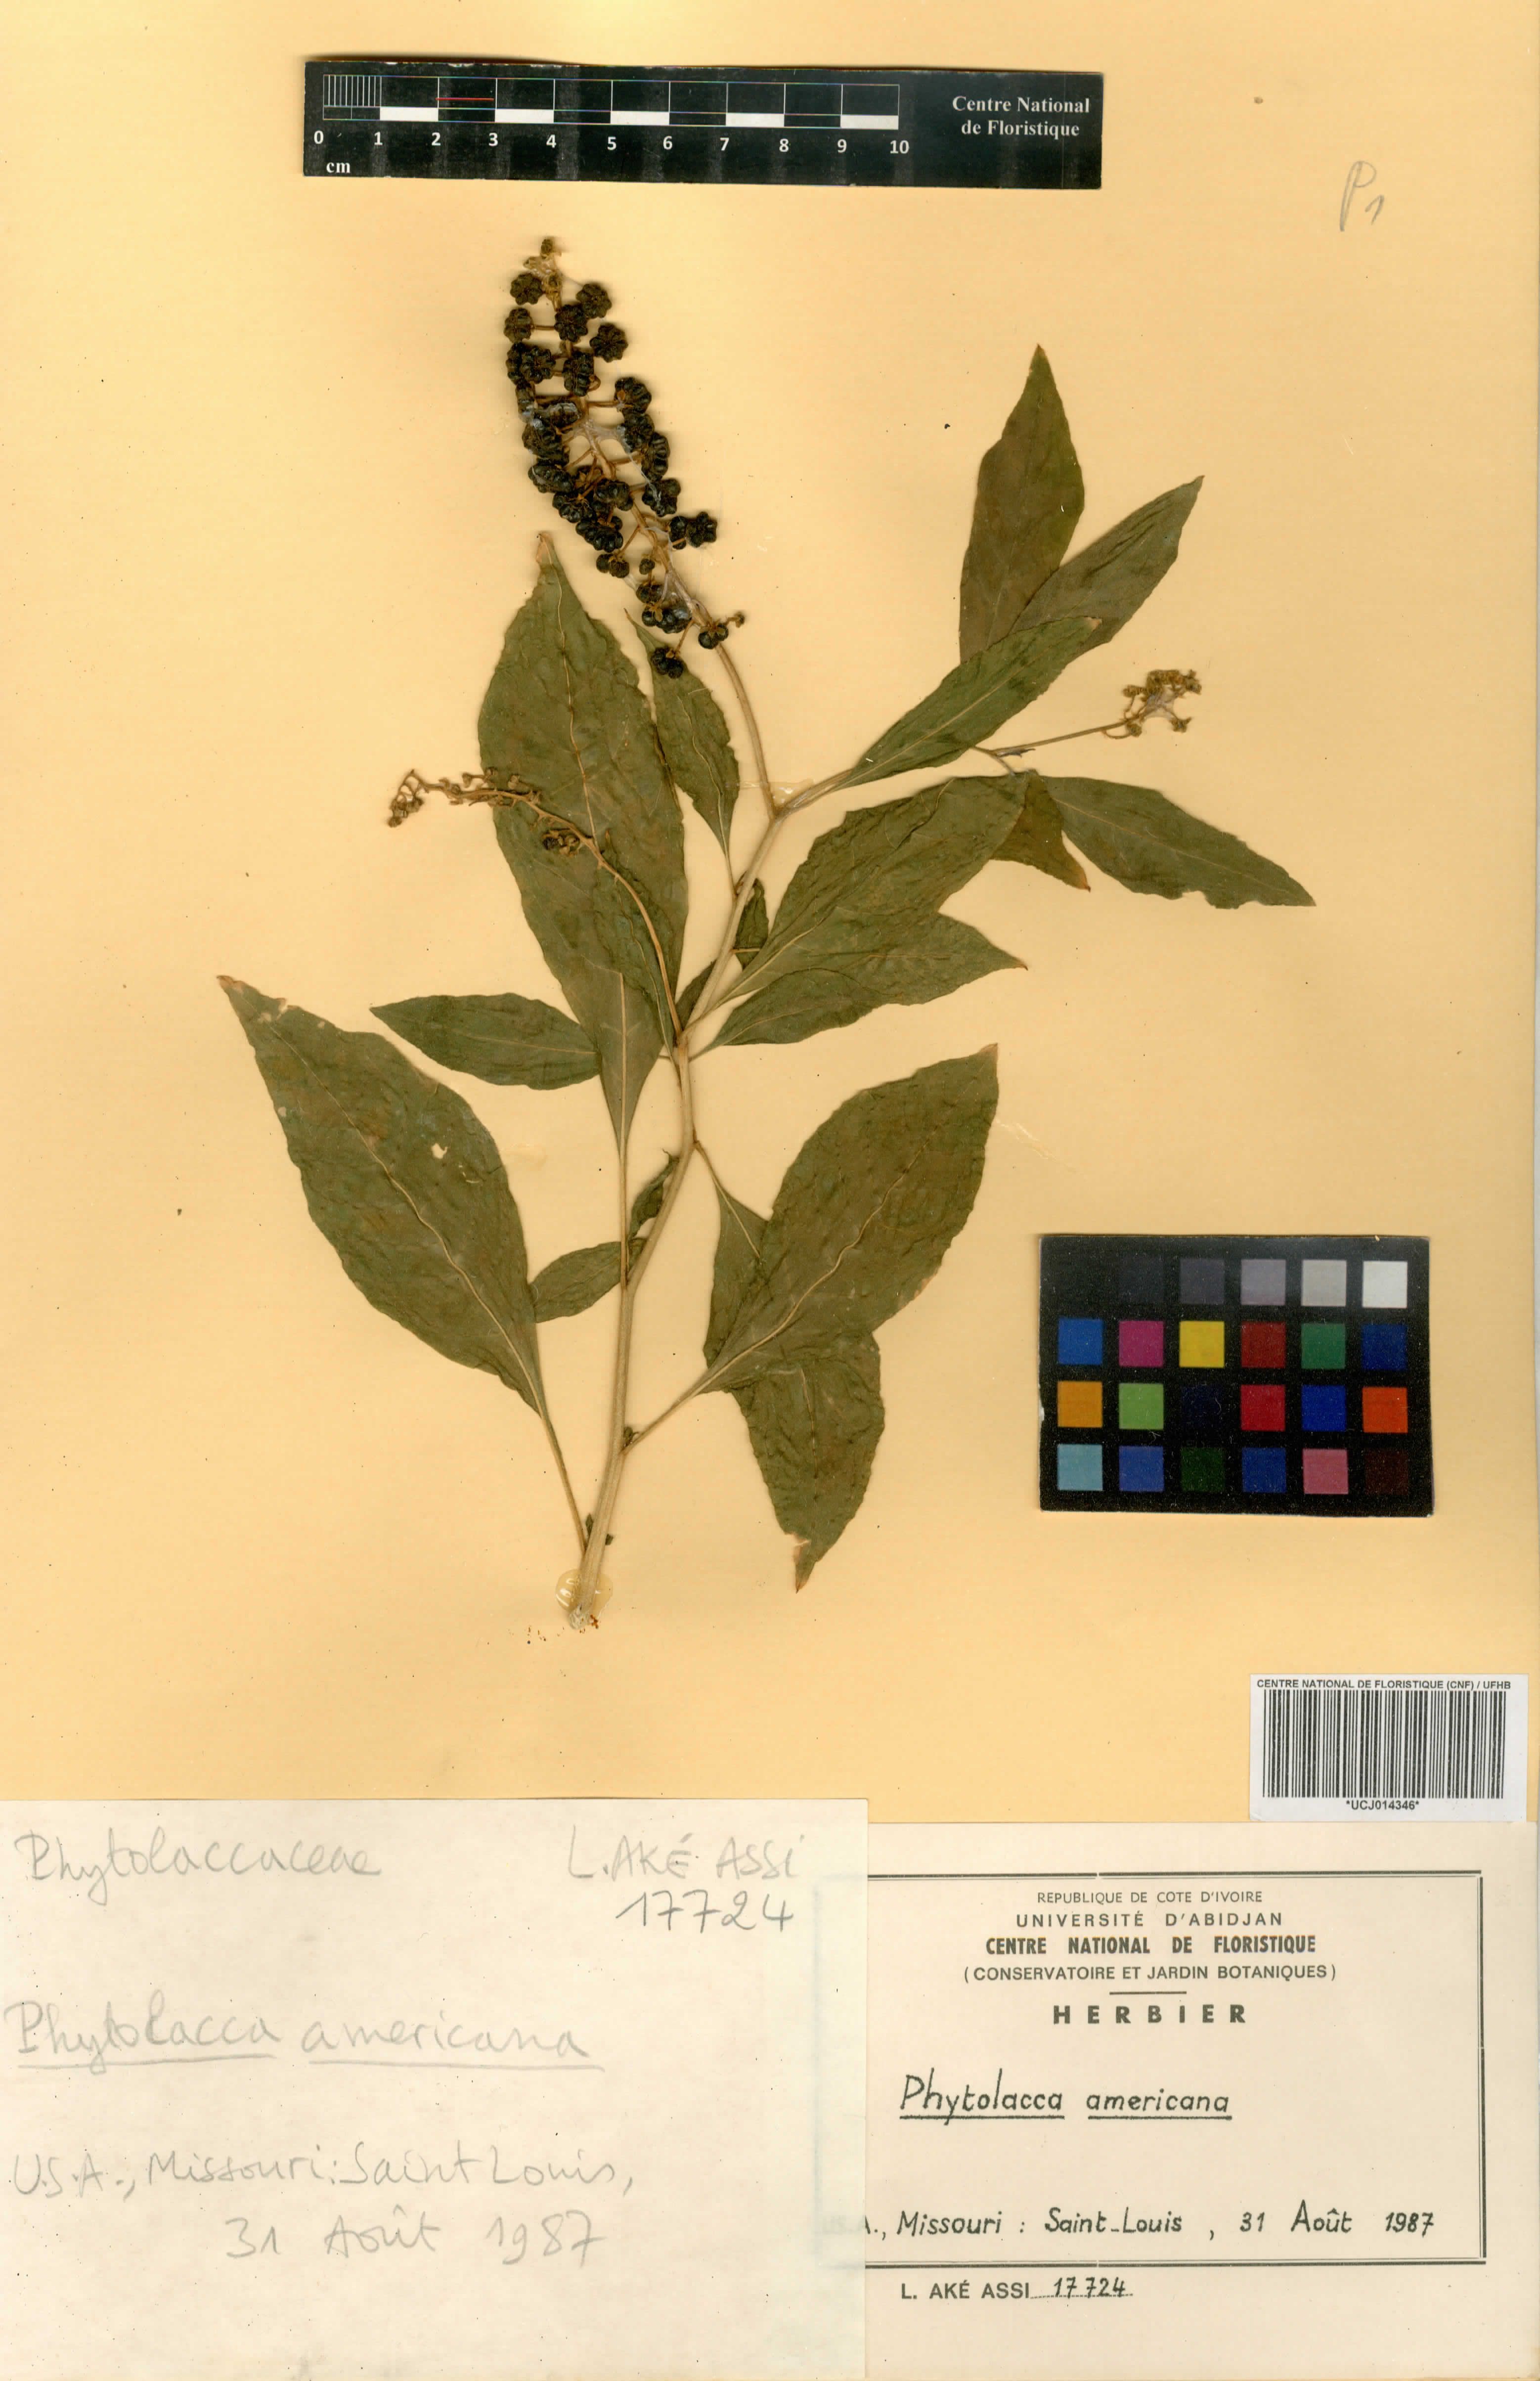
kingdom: Plantae
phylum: Tracheophyta
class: Magnoliopsida
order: Caryophyllales
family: Phytolaccaceae
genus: Phytolacca
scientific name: Phytolacca americana
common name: American pokeweed
